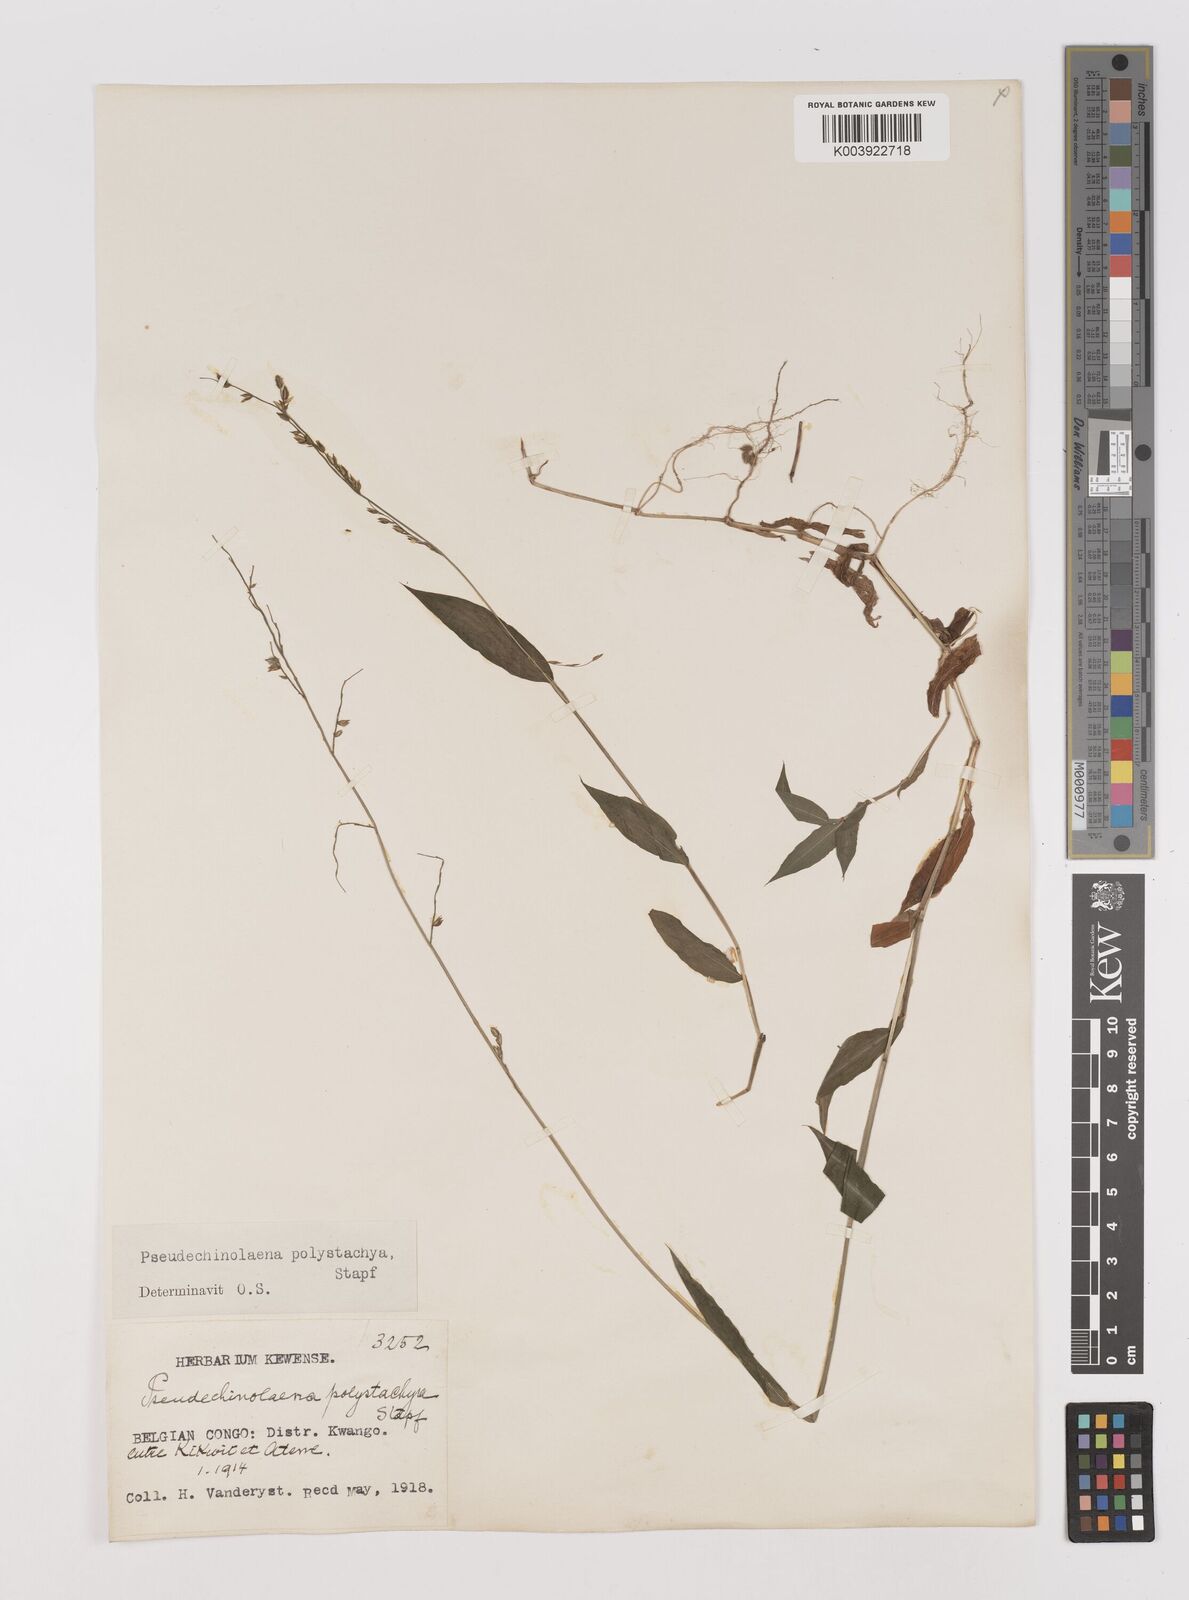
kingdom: Plantae
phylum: Tracheophyta
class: Liliopsida
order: Poales
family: Poaceae
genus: Pseudechinolaena
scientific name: Pseudechinolaena polystachya
